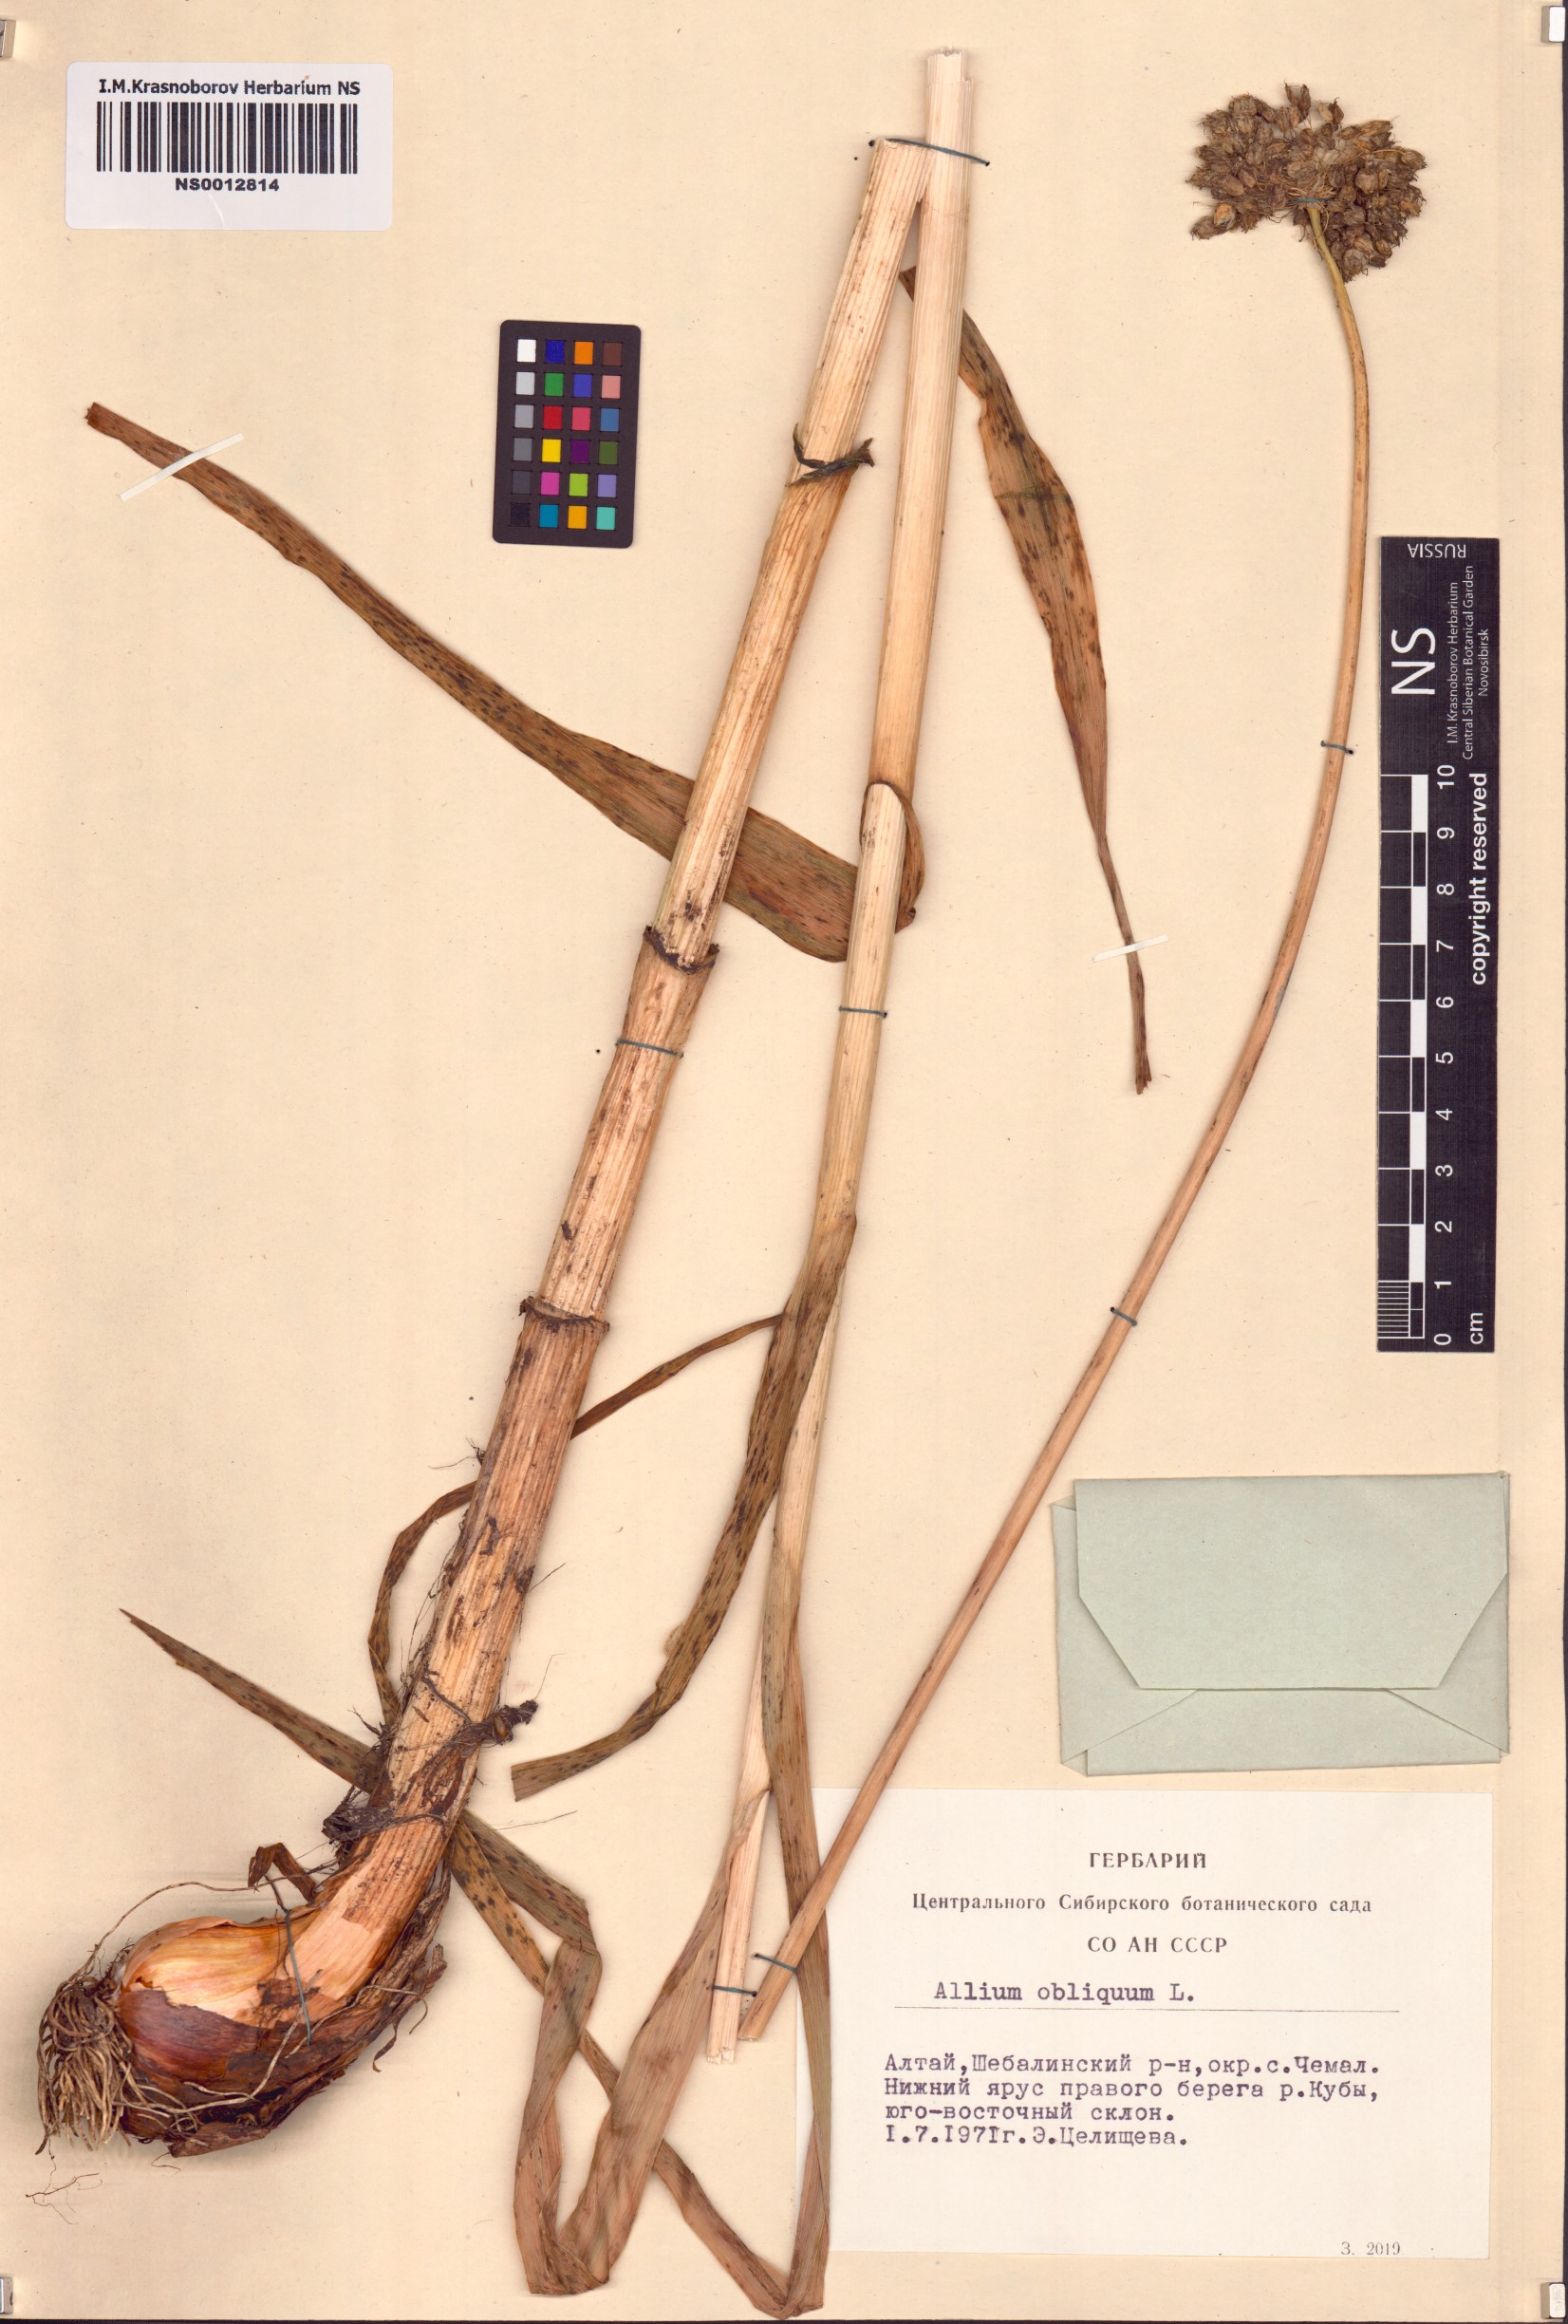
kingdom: Plantae
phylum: Tracheophyta
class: Liliopsida
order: Asparagales
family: Amaryllidaceae
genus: Allium
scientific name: Allium obliquum
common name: Oblique onion
